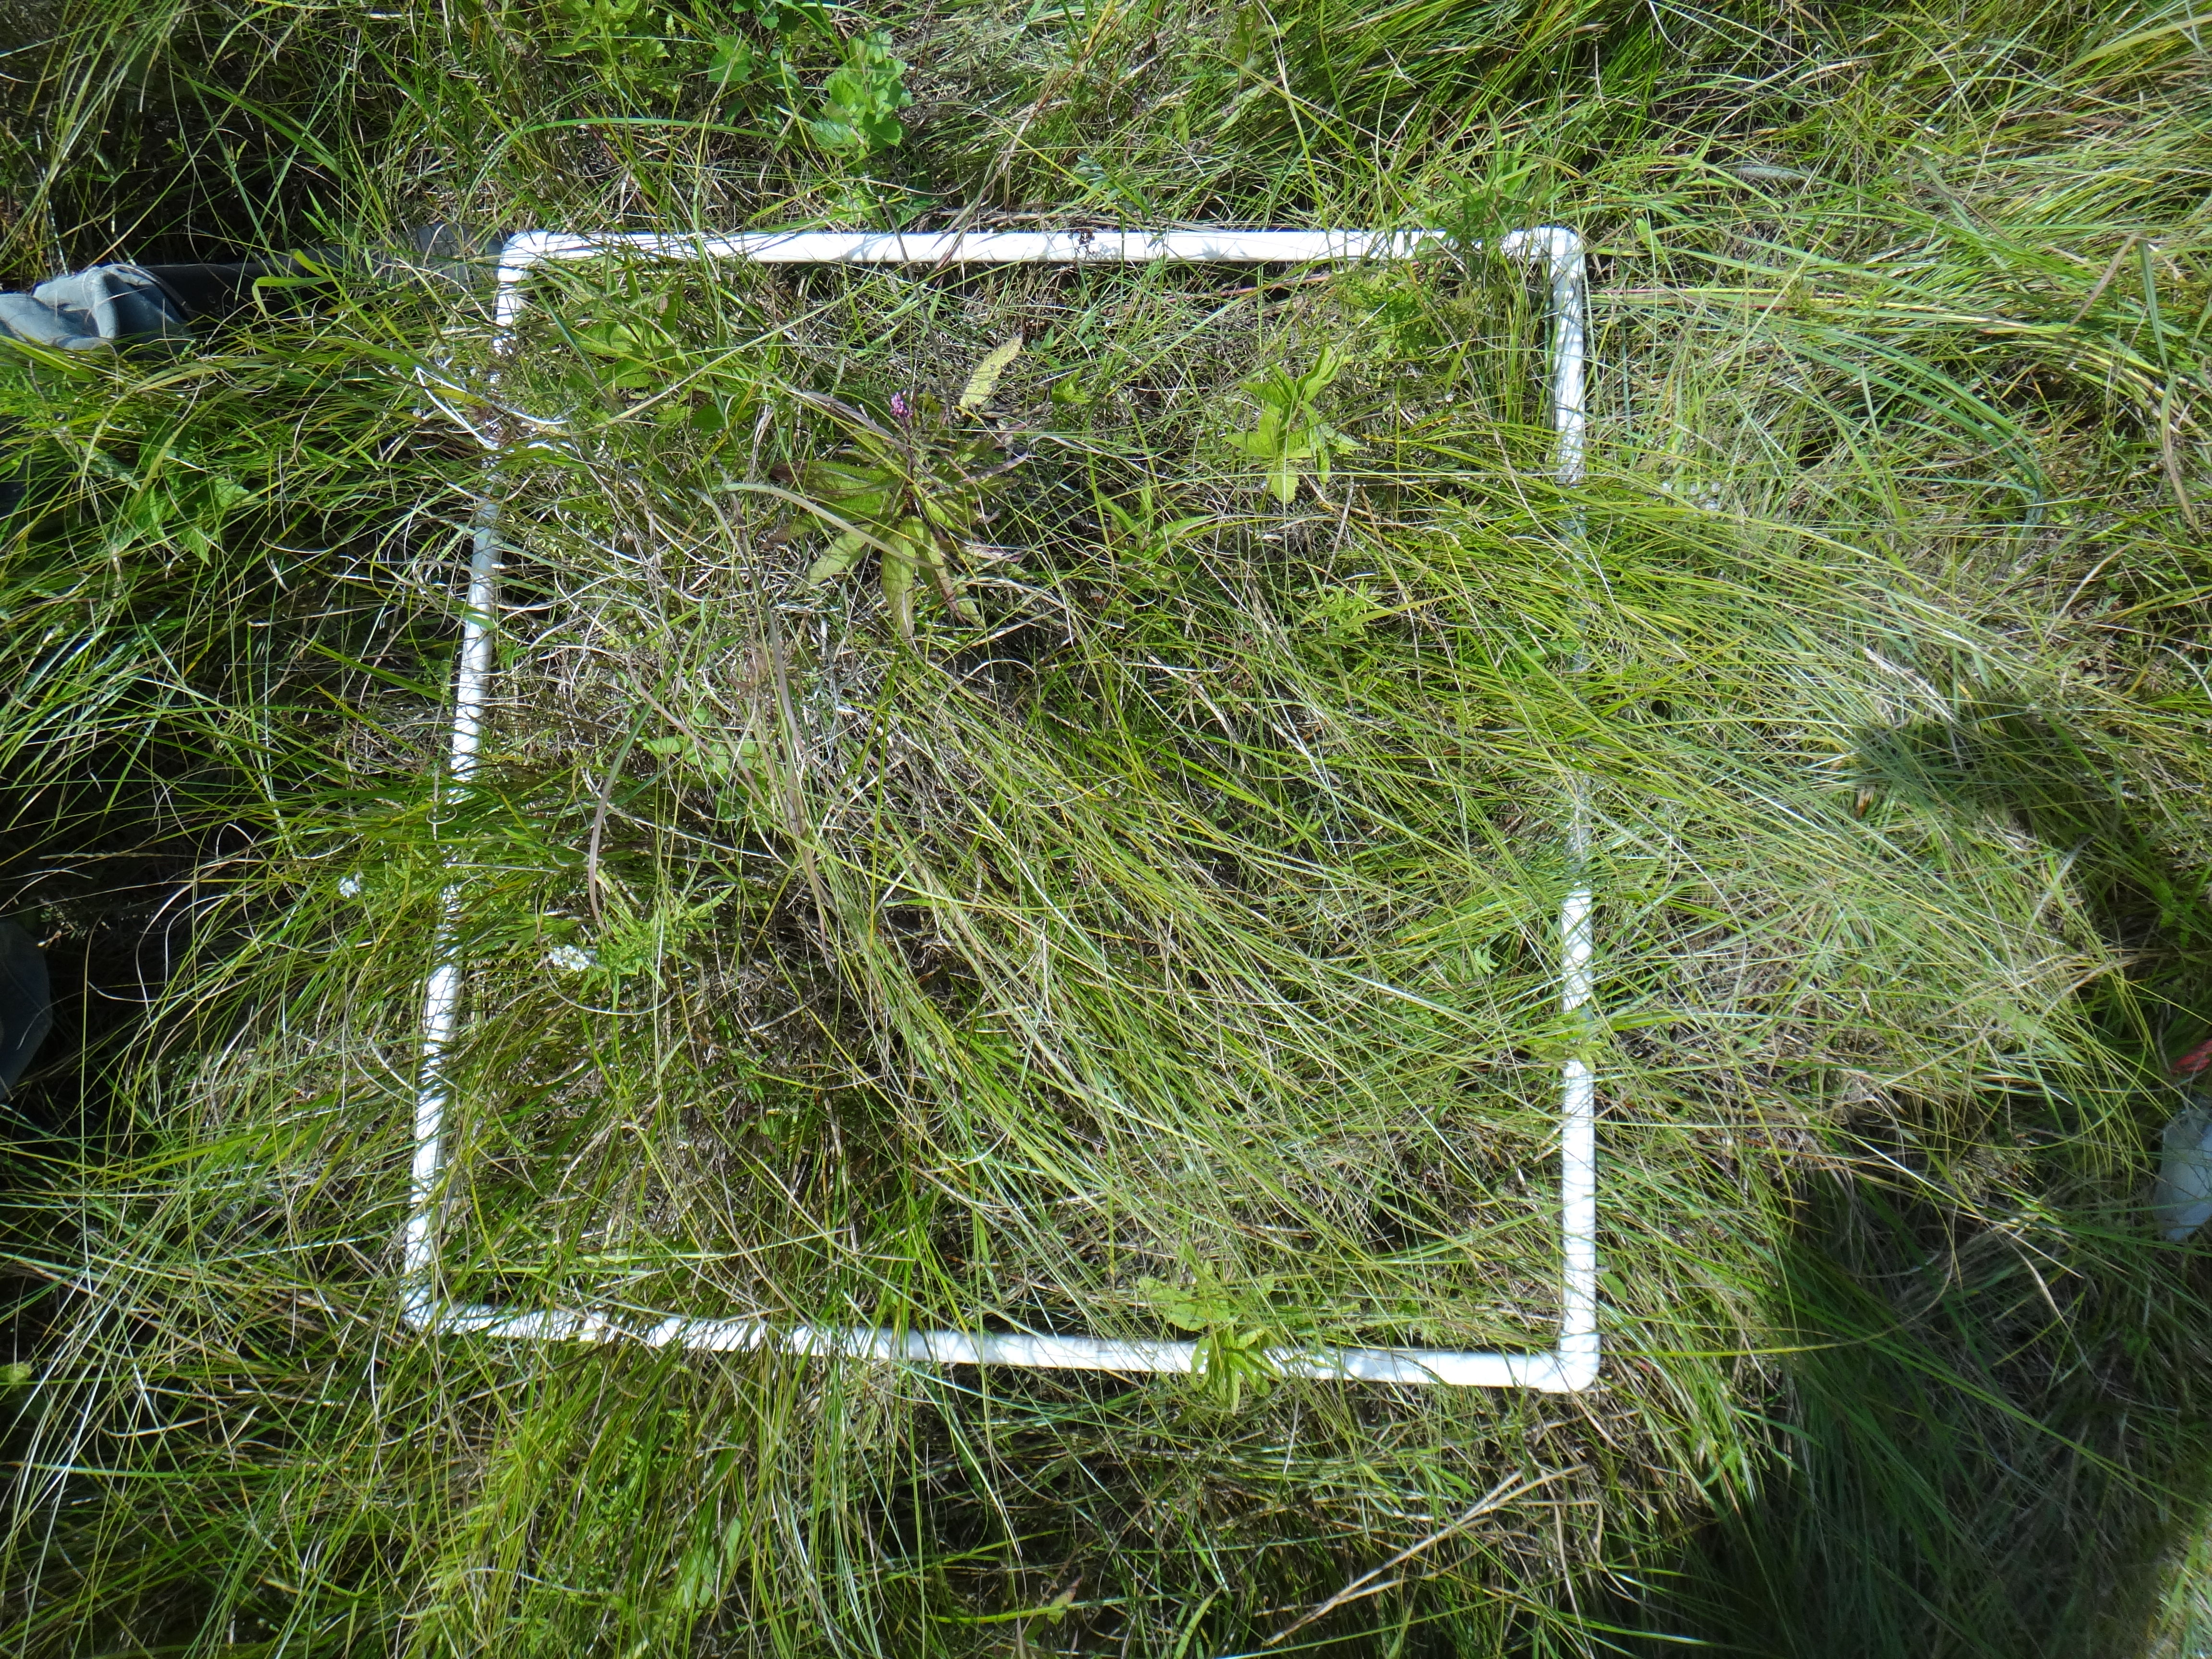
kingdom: Plantae
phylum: Tracheophyta
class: Magnoliopsida
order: Asterales
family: Asteraceae
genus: Eutrochium
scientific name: Eutrochium maculatum
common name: Spotted joe pye weed
